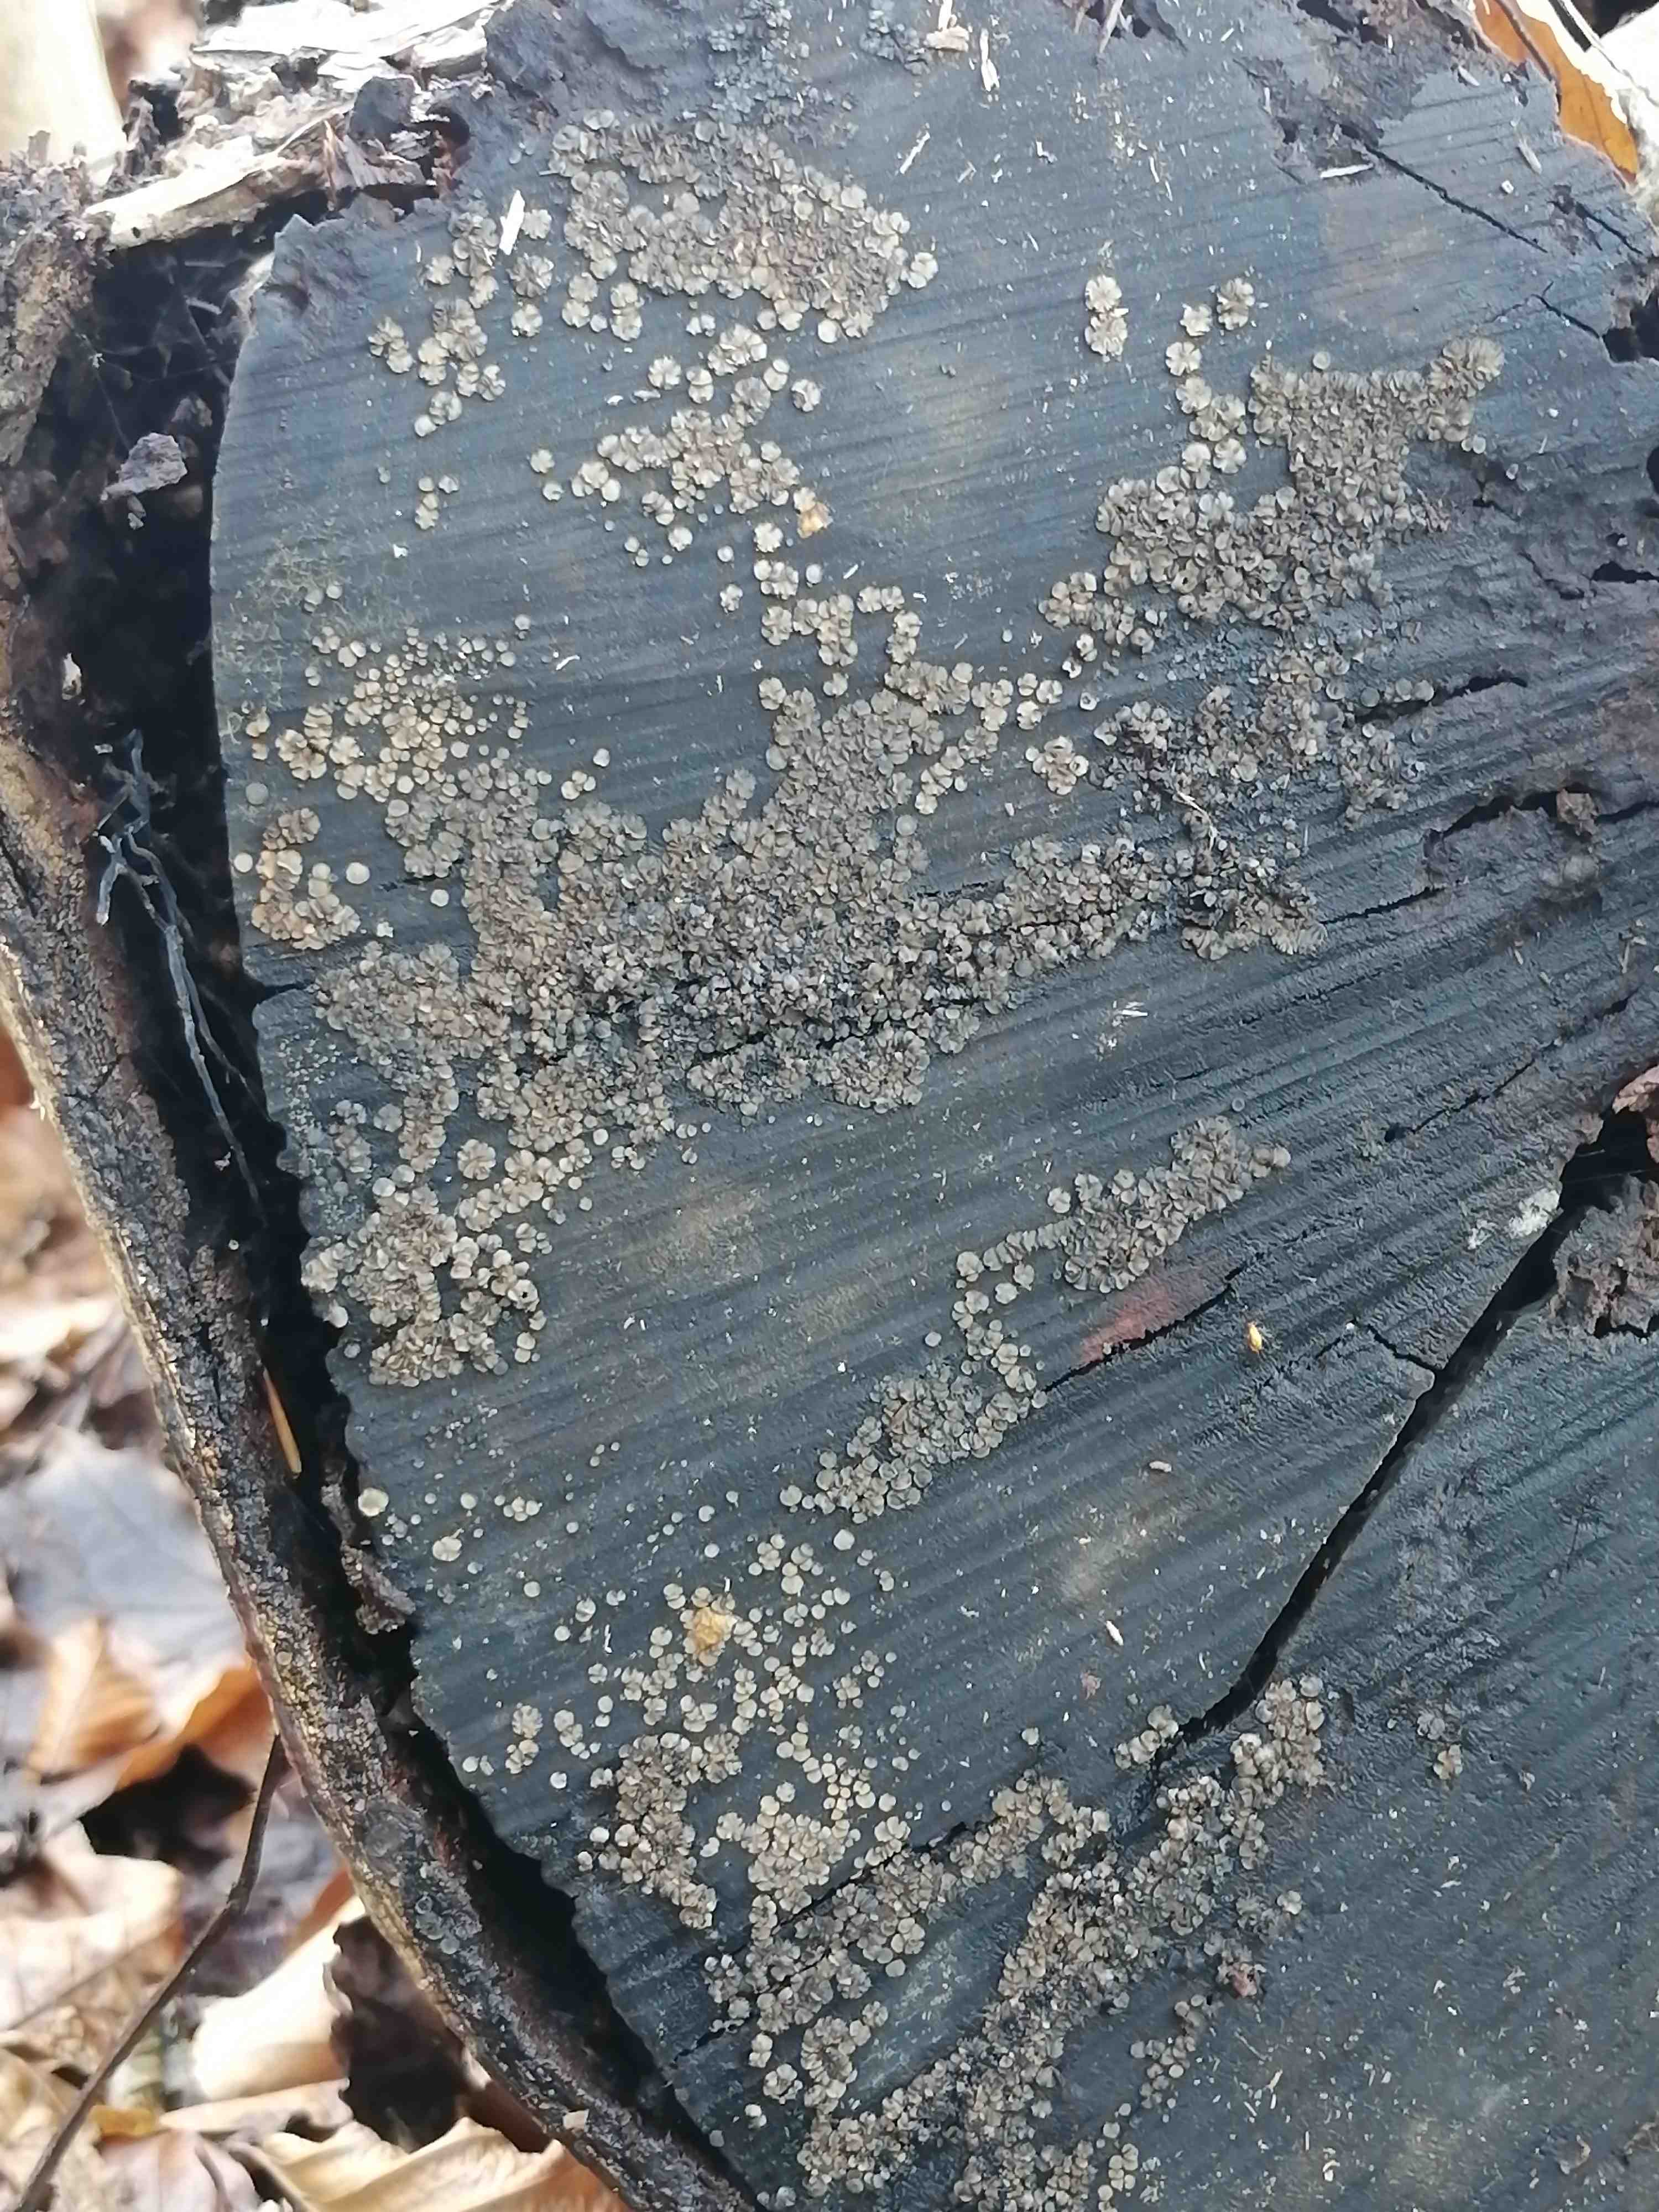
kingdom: Fungi
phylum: Ascomycota
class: Leotiomycetes
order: Helotiales
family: Mollisiaceae
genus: Mollisia
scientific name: Mollisia
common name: gråskive
